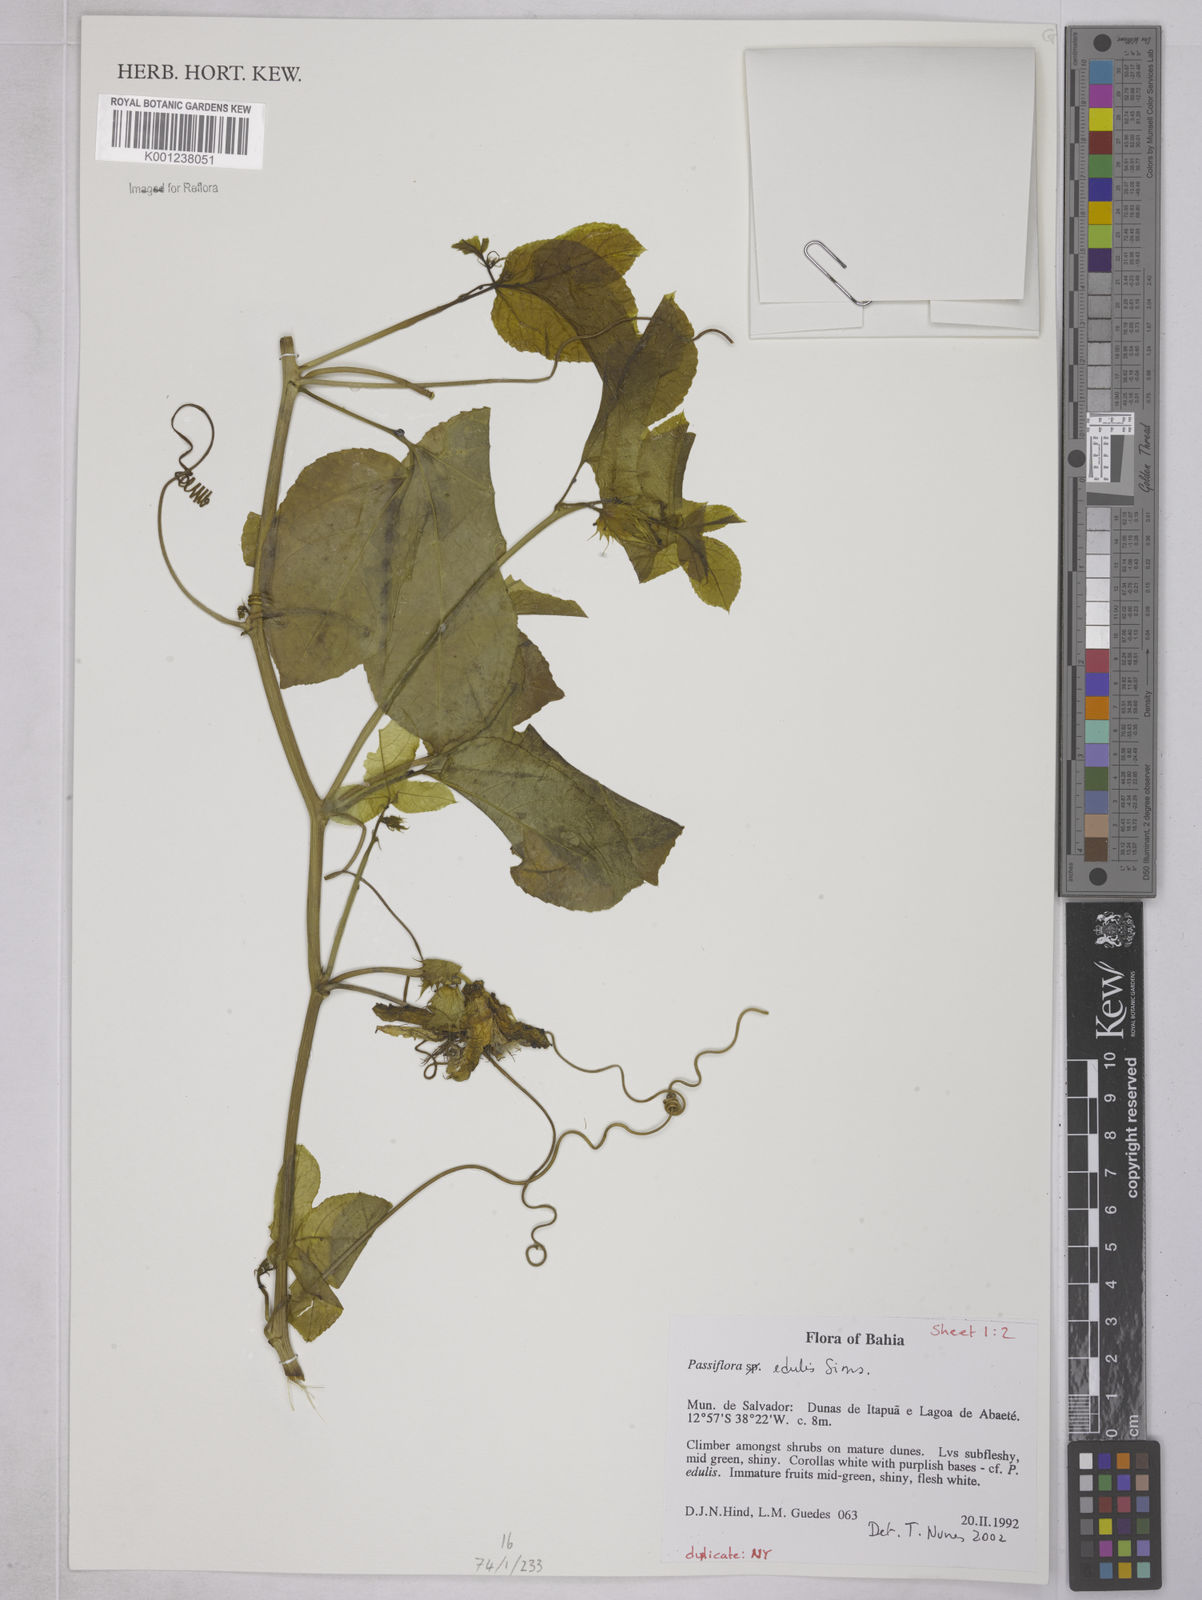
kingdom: Plantae
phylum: Tracheophyta
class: Magnoliopsida
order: Malpighiales
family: Passifloraceae
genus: Passiflora
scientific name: Passiflora edulis
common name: Purple granadilla
